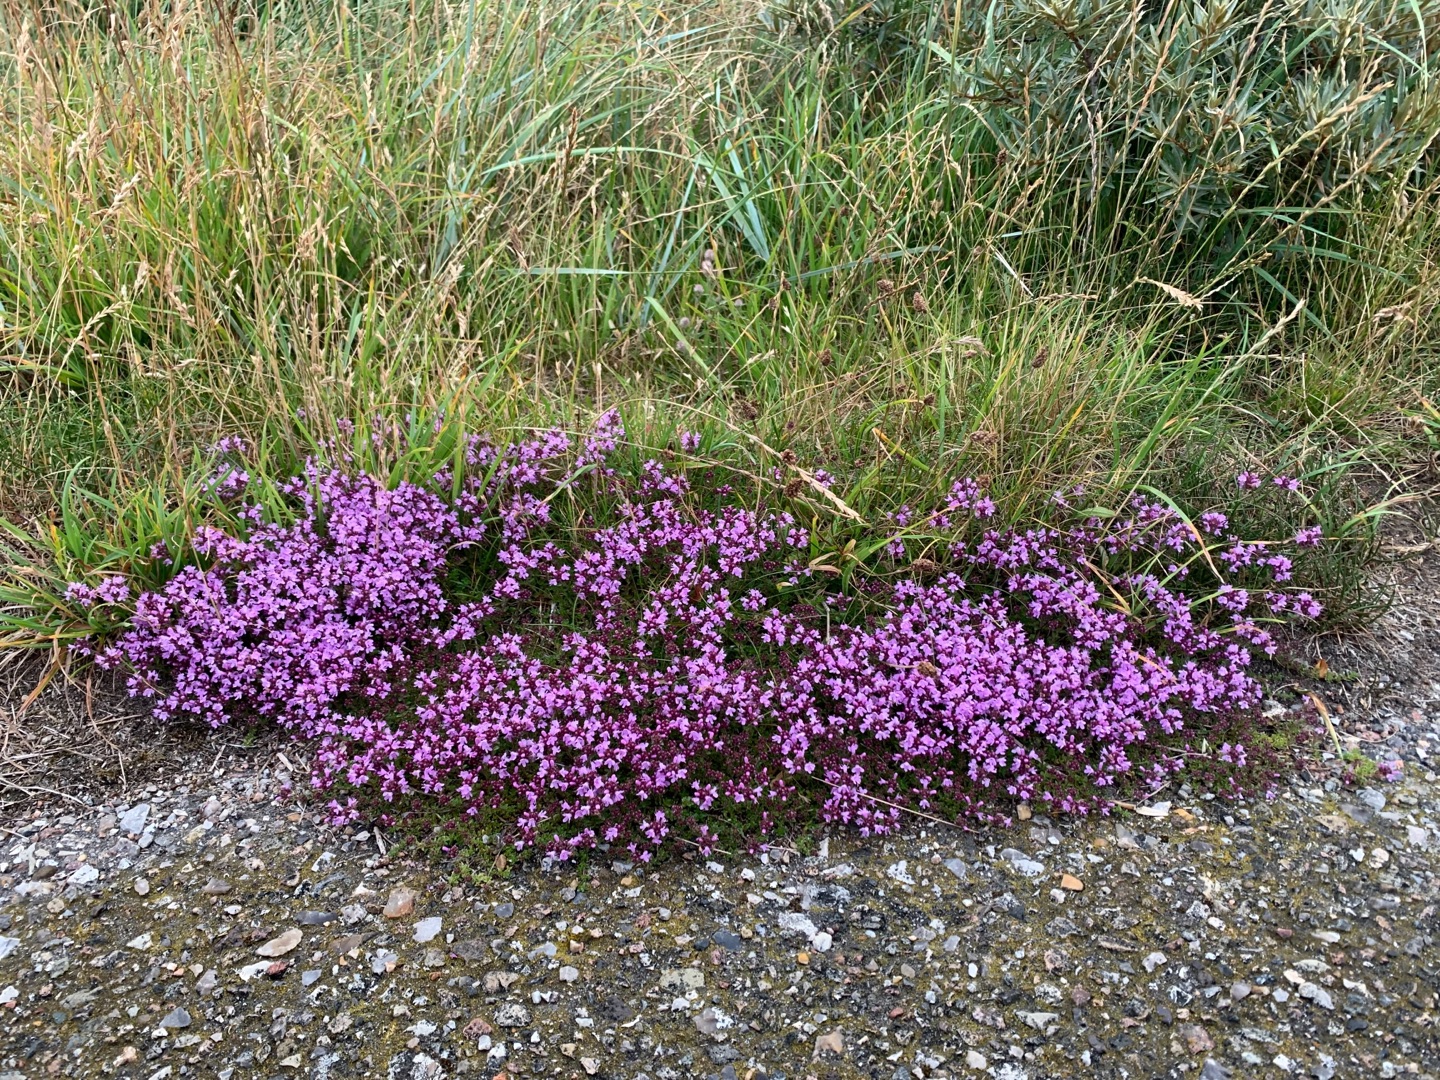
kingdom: Plantae
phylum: Tracheophyta
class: Magnoliopsida
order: Lamiales
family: Lamiaceae
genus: Thymus
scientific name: Thymus serpyllum
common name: Smalbladet timian
